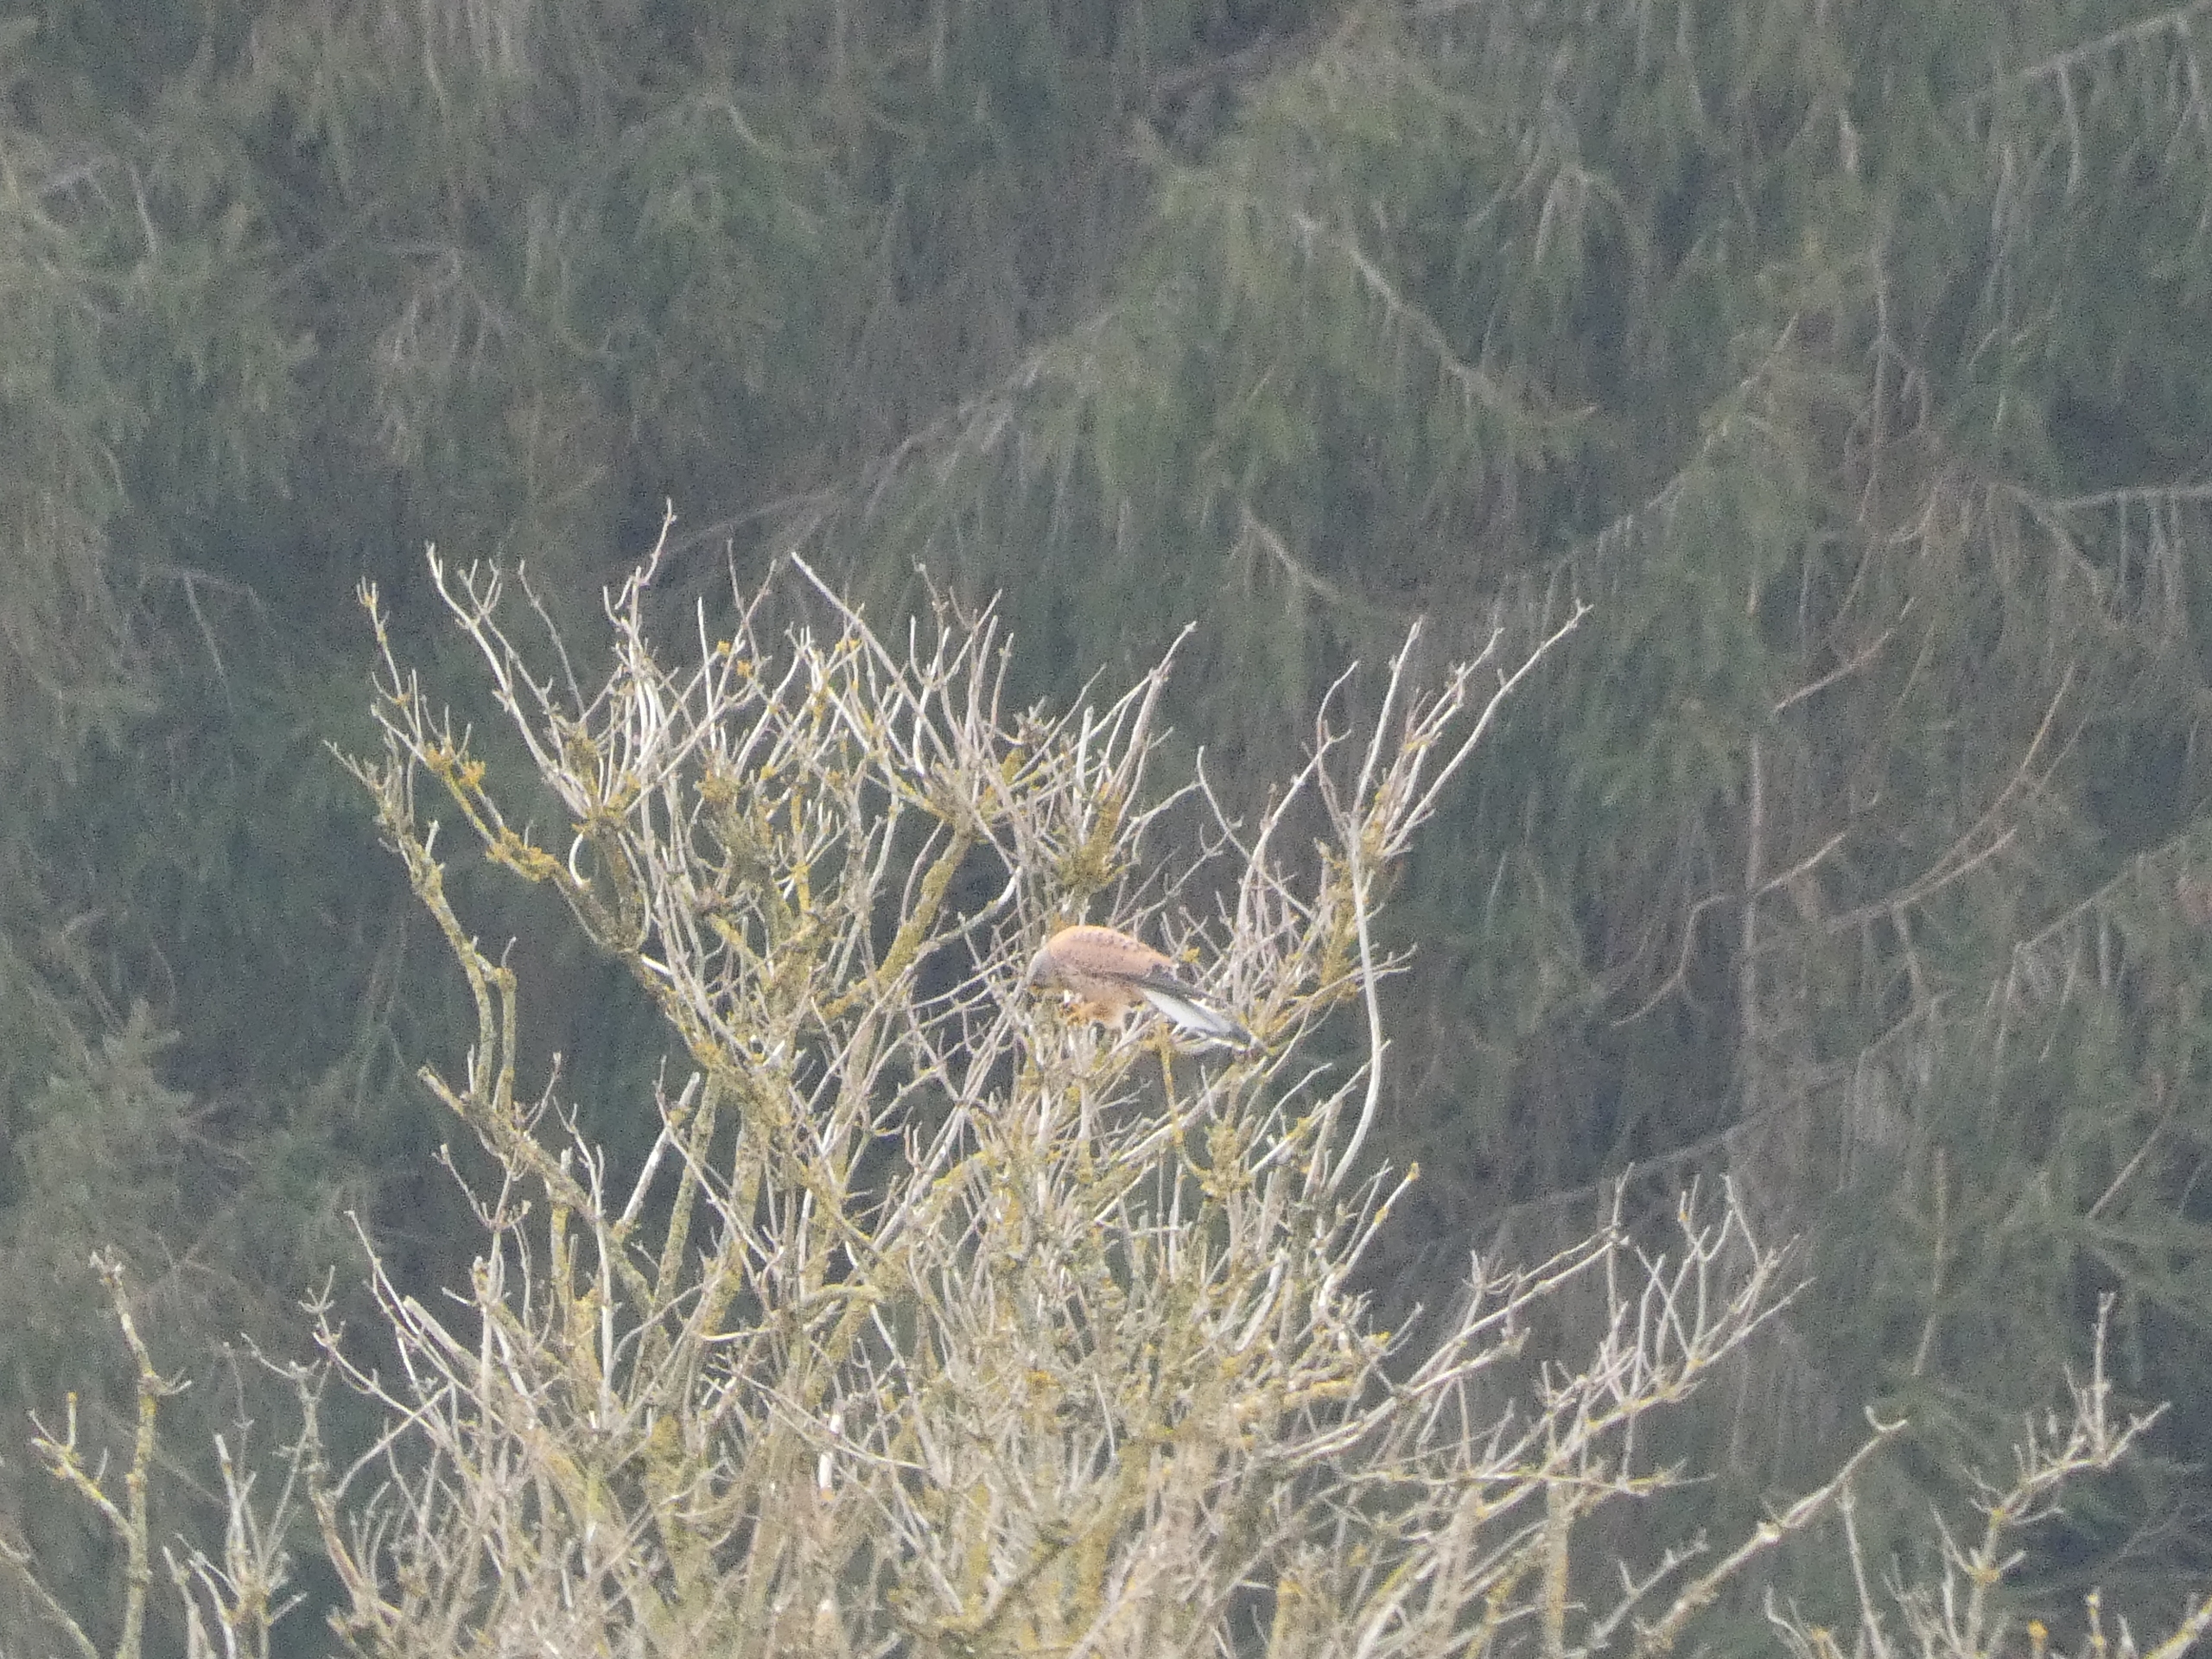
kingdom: Animalia
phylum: Chordata
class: Aves
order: Falconiformes
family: Falconidae
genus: Falco
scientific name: Falco tinnunculus
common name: Tårnfalk
